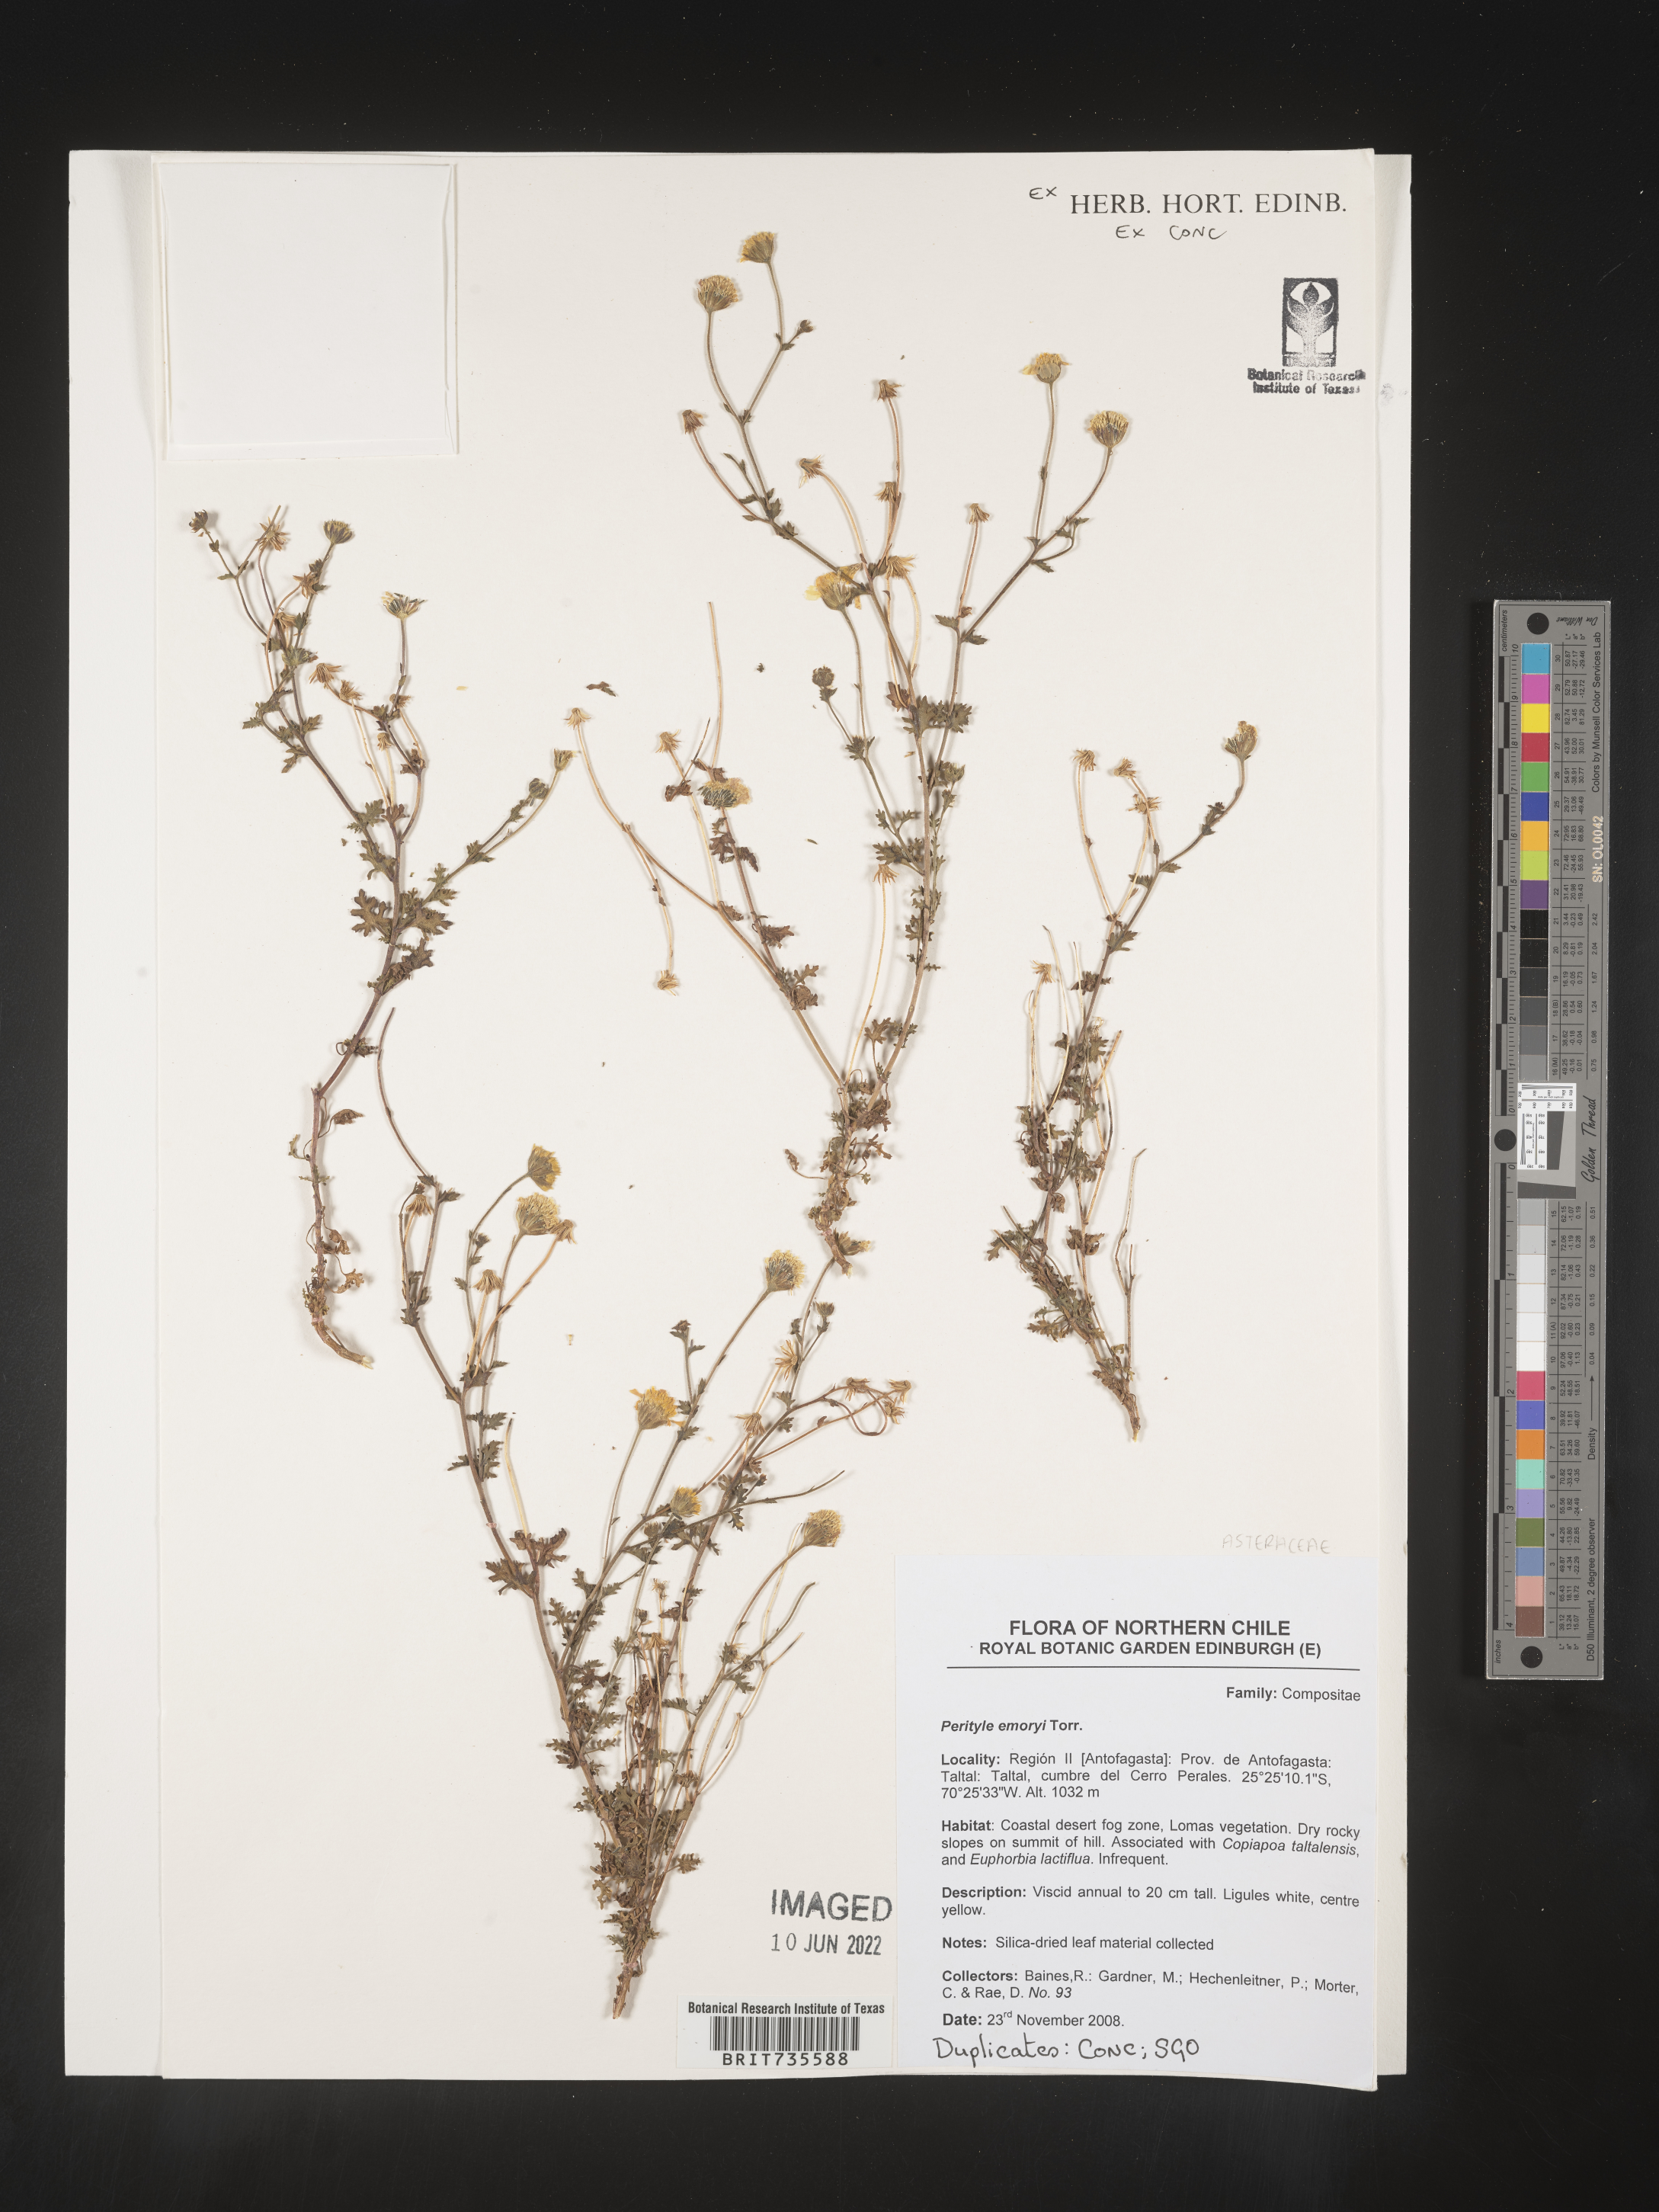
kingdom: Plantae
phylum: Tracheophyta
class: Magnoliopsida
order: Asterales
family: Asteraceae
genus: Perityle
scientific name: Perityle
